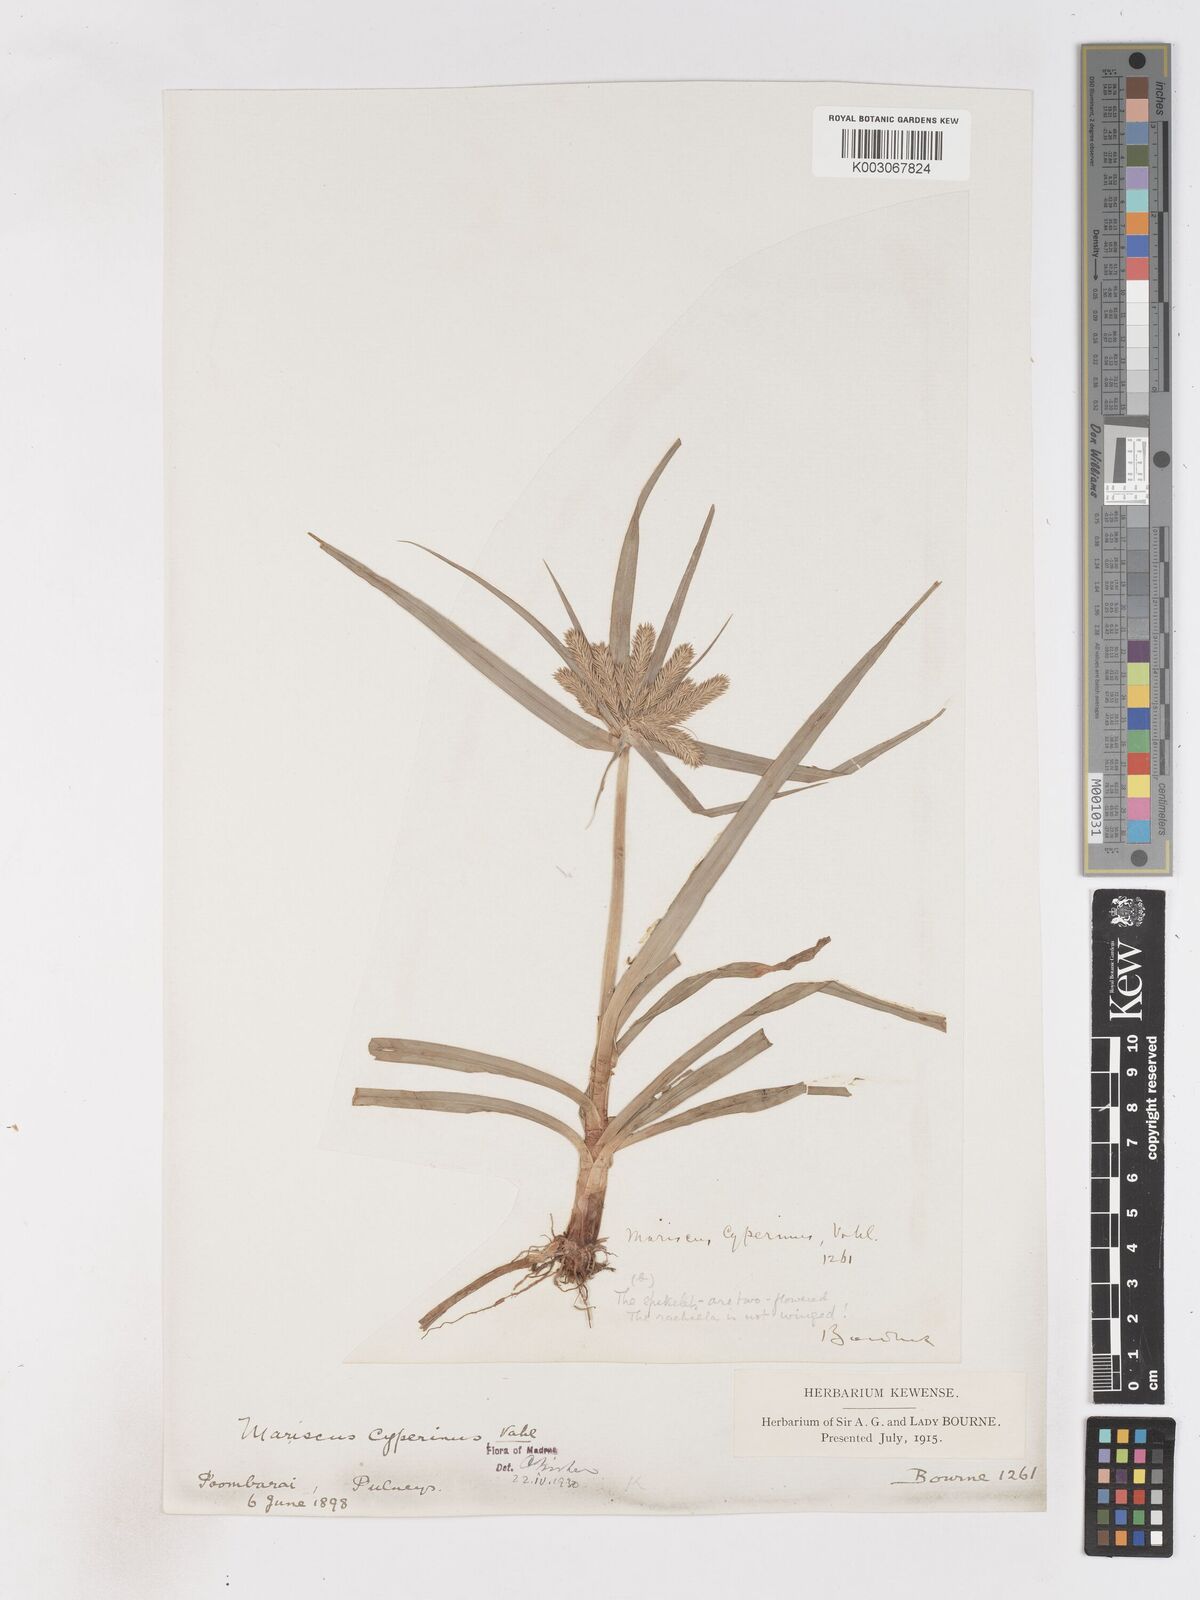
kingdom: Plantae
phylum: Tracheophyta
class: Liliopsida
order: Poales
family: Cyperaceae
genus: Cyperus
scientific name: Cyperus cyperoides
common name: Pacific island flat sedge
